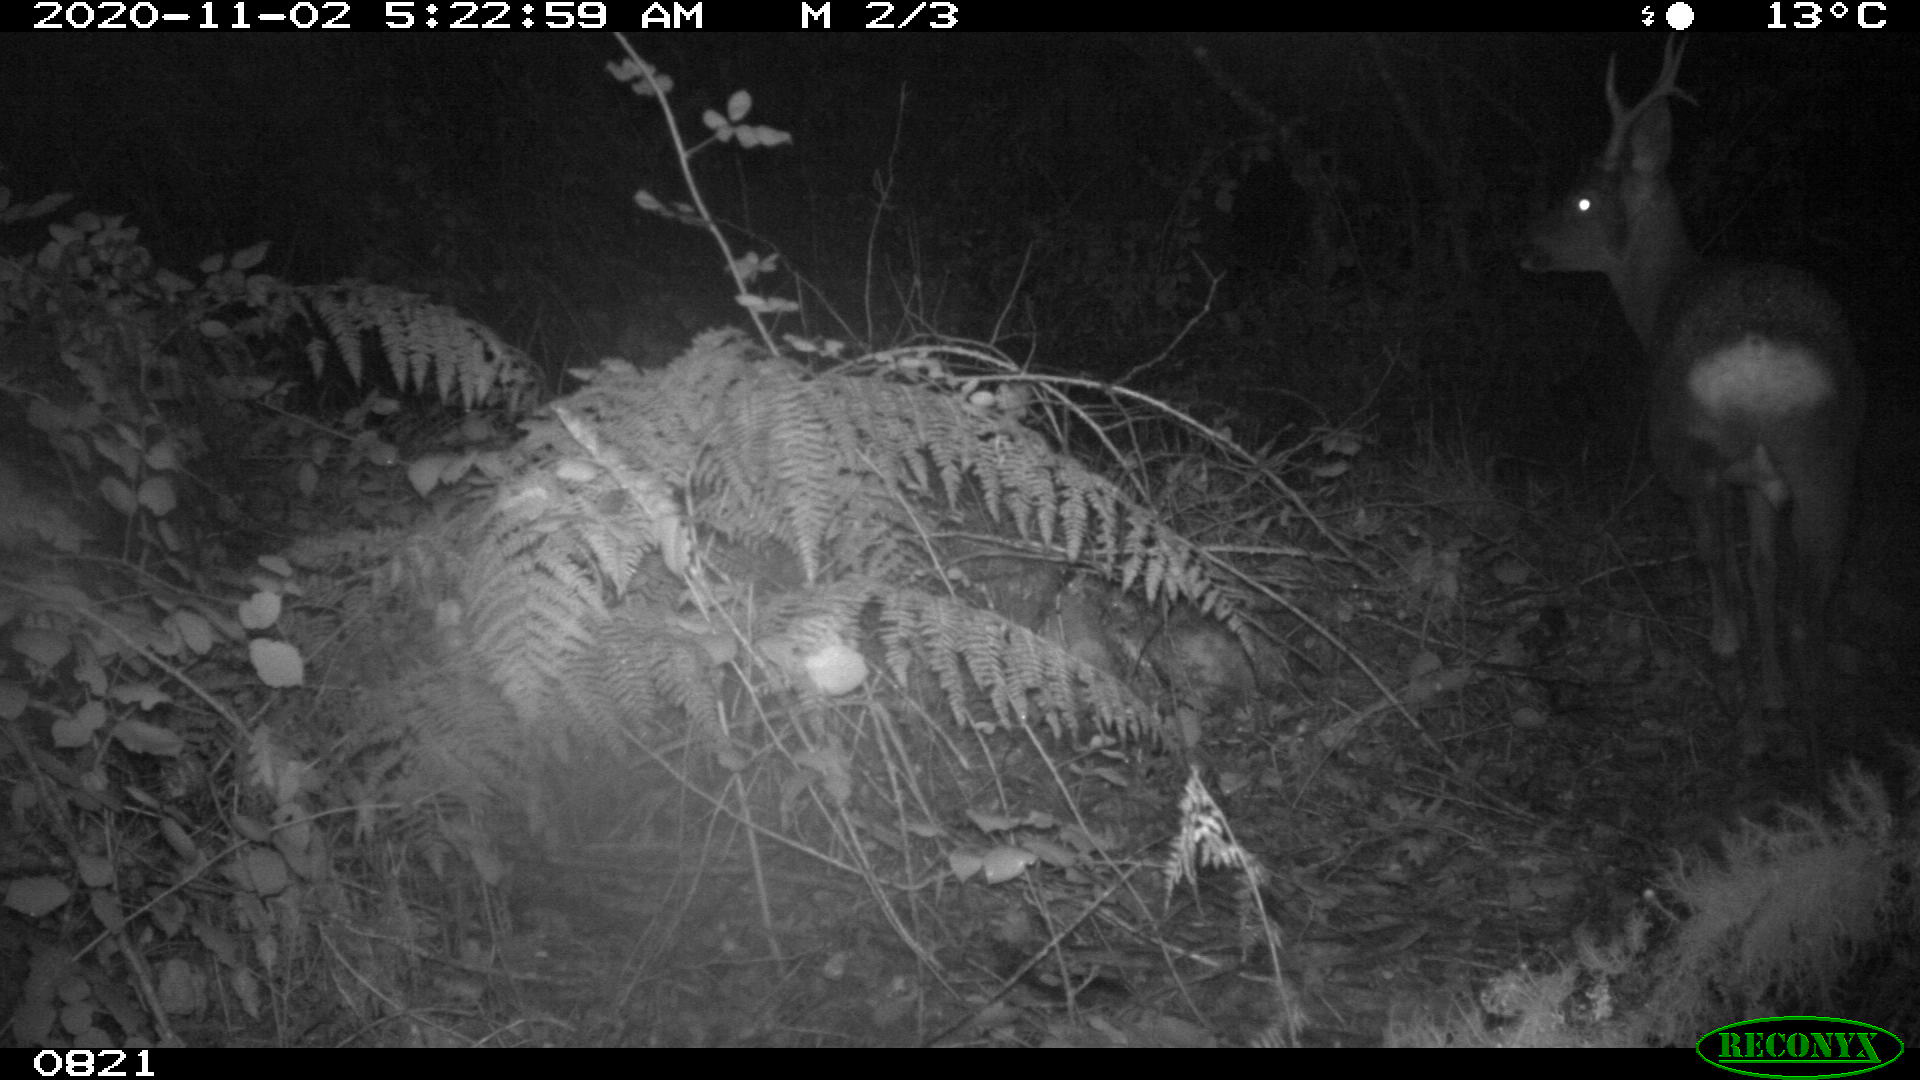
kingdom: Animalia
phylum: Chordata
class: Mammalia
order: Artiodactyla
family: Cervidae
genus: Capreolus
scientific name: Capreolus capreolus
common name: Western roe deer
